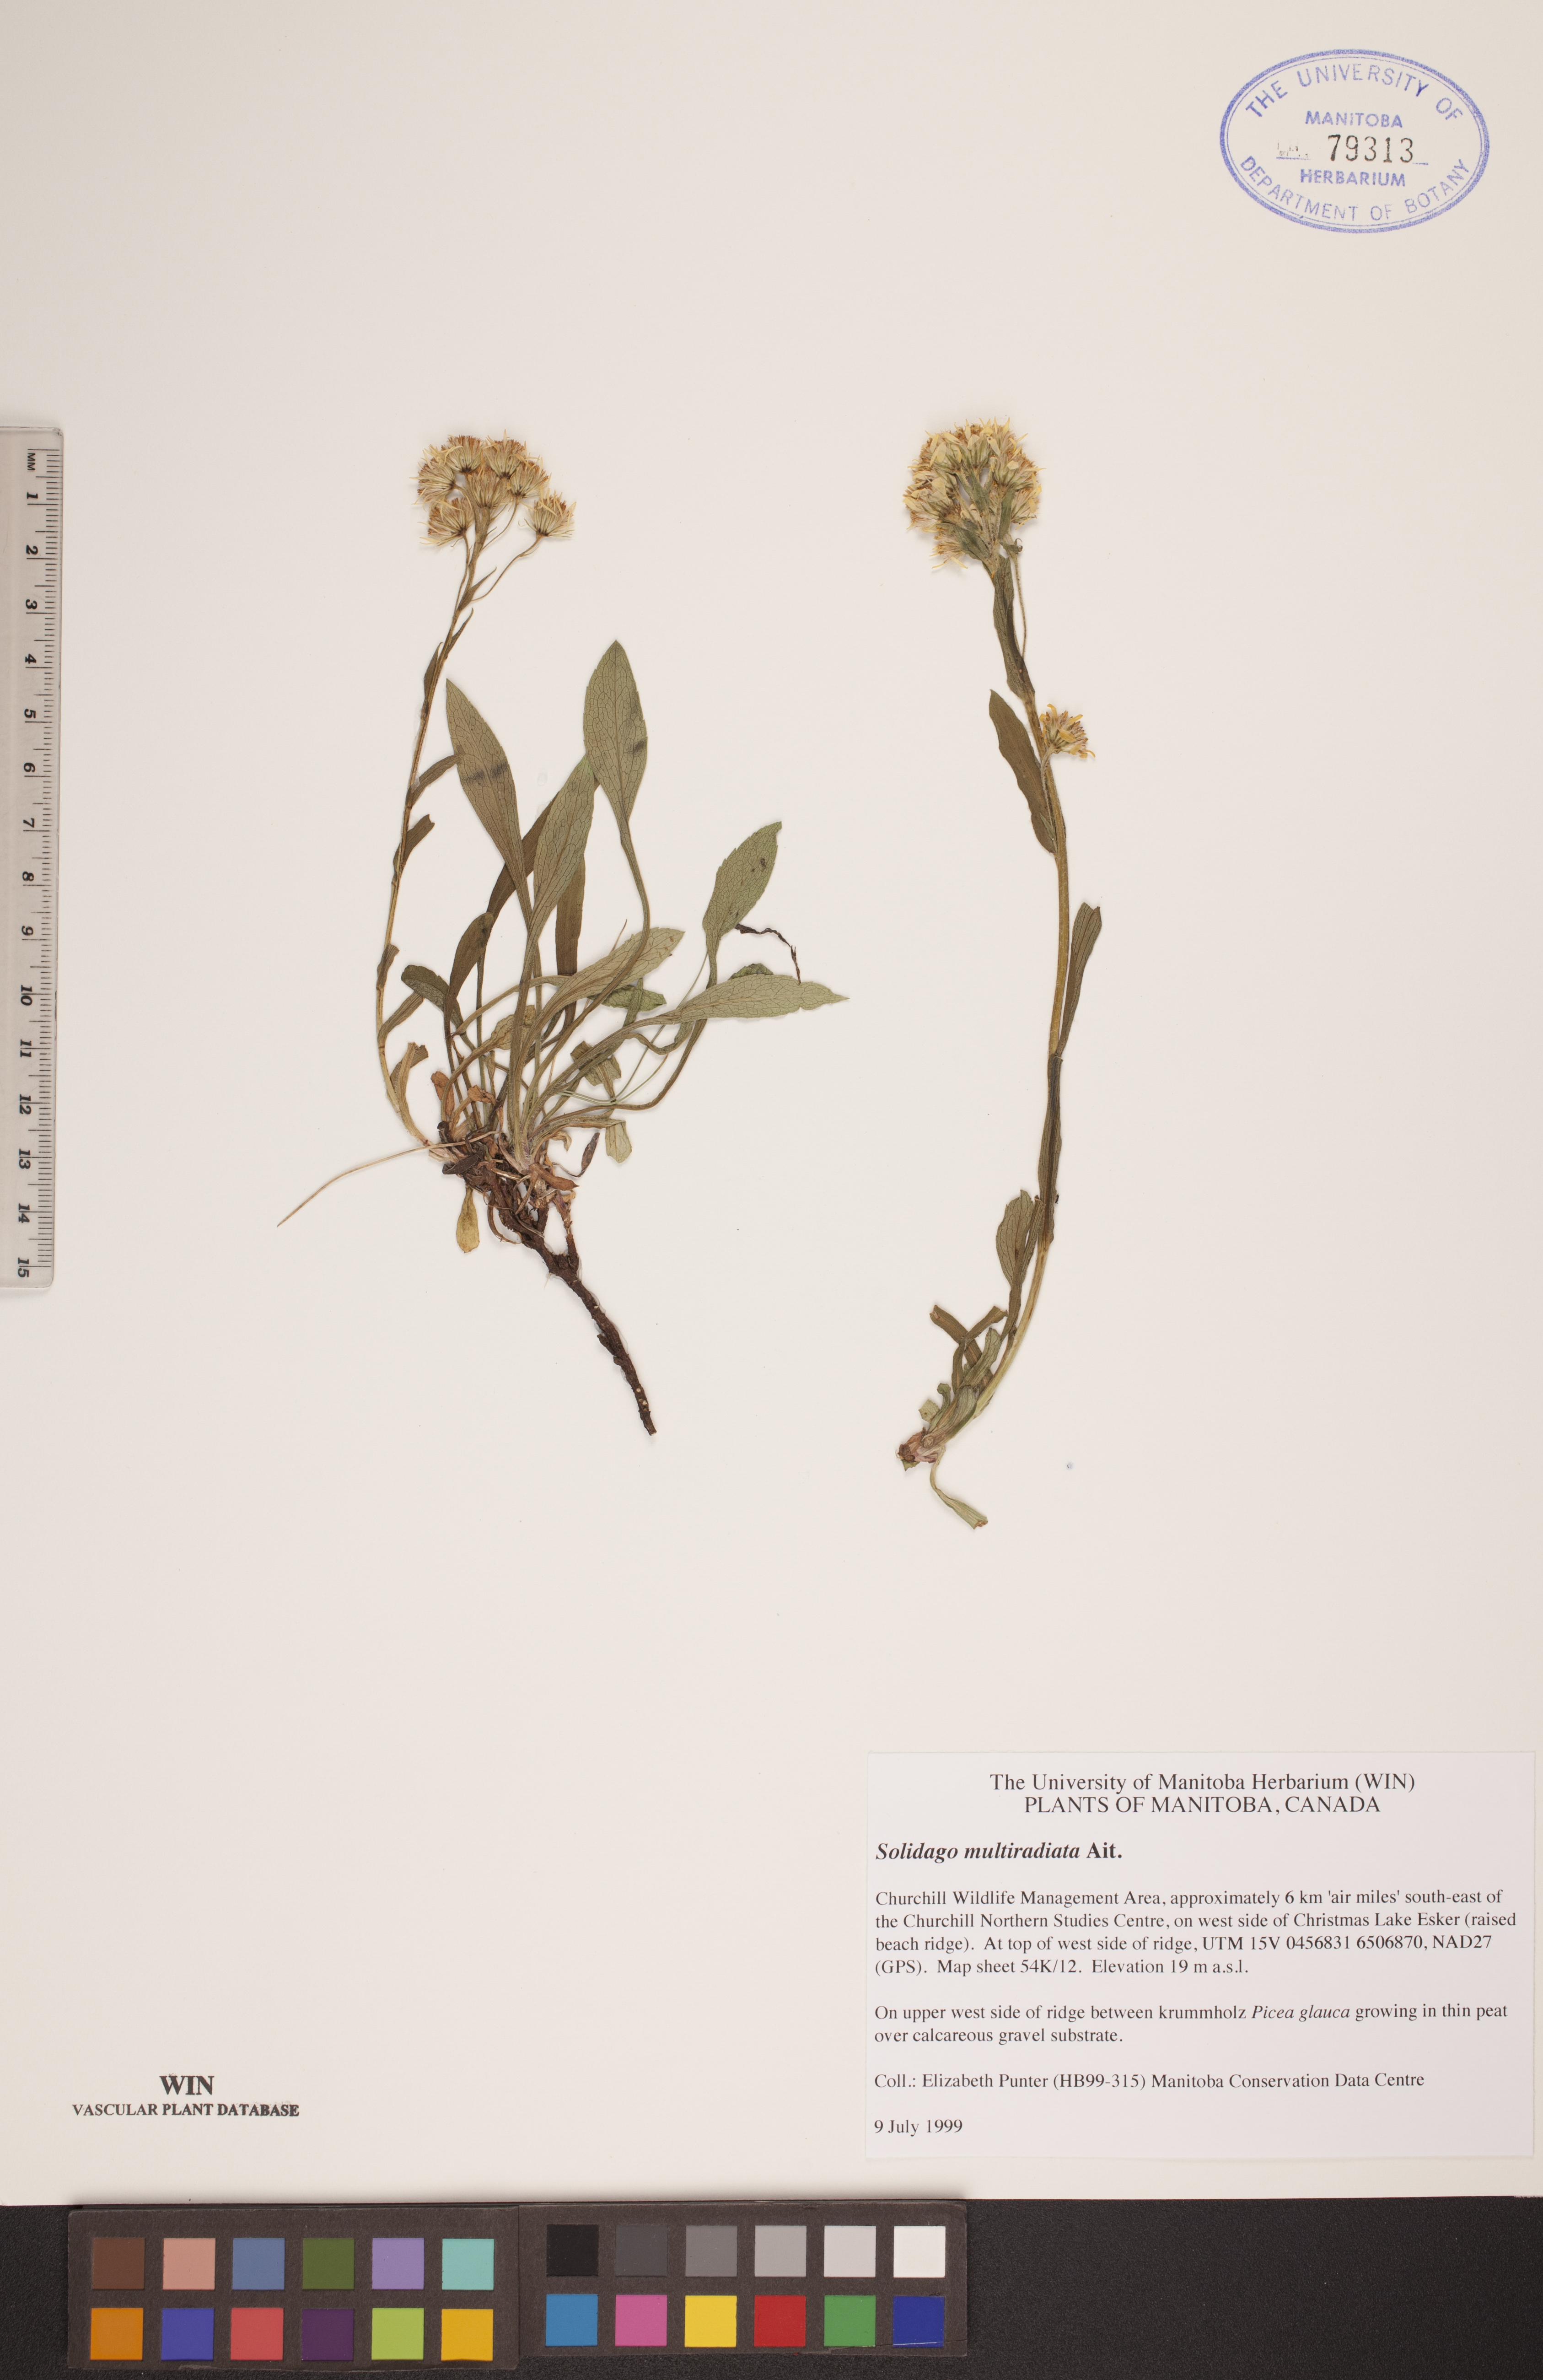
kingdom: Plantae
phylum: Tracheophyta
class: Magnoliopsida
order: Asterales
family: Asteraceae
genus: Solidago
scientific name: Solidago multiradiata
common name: Northern goldenrod
